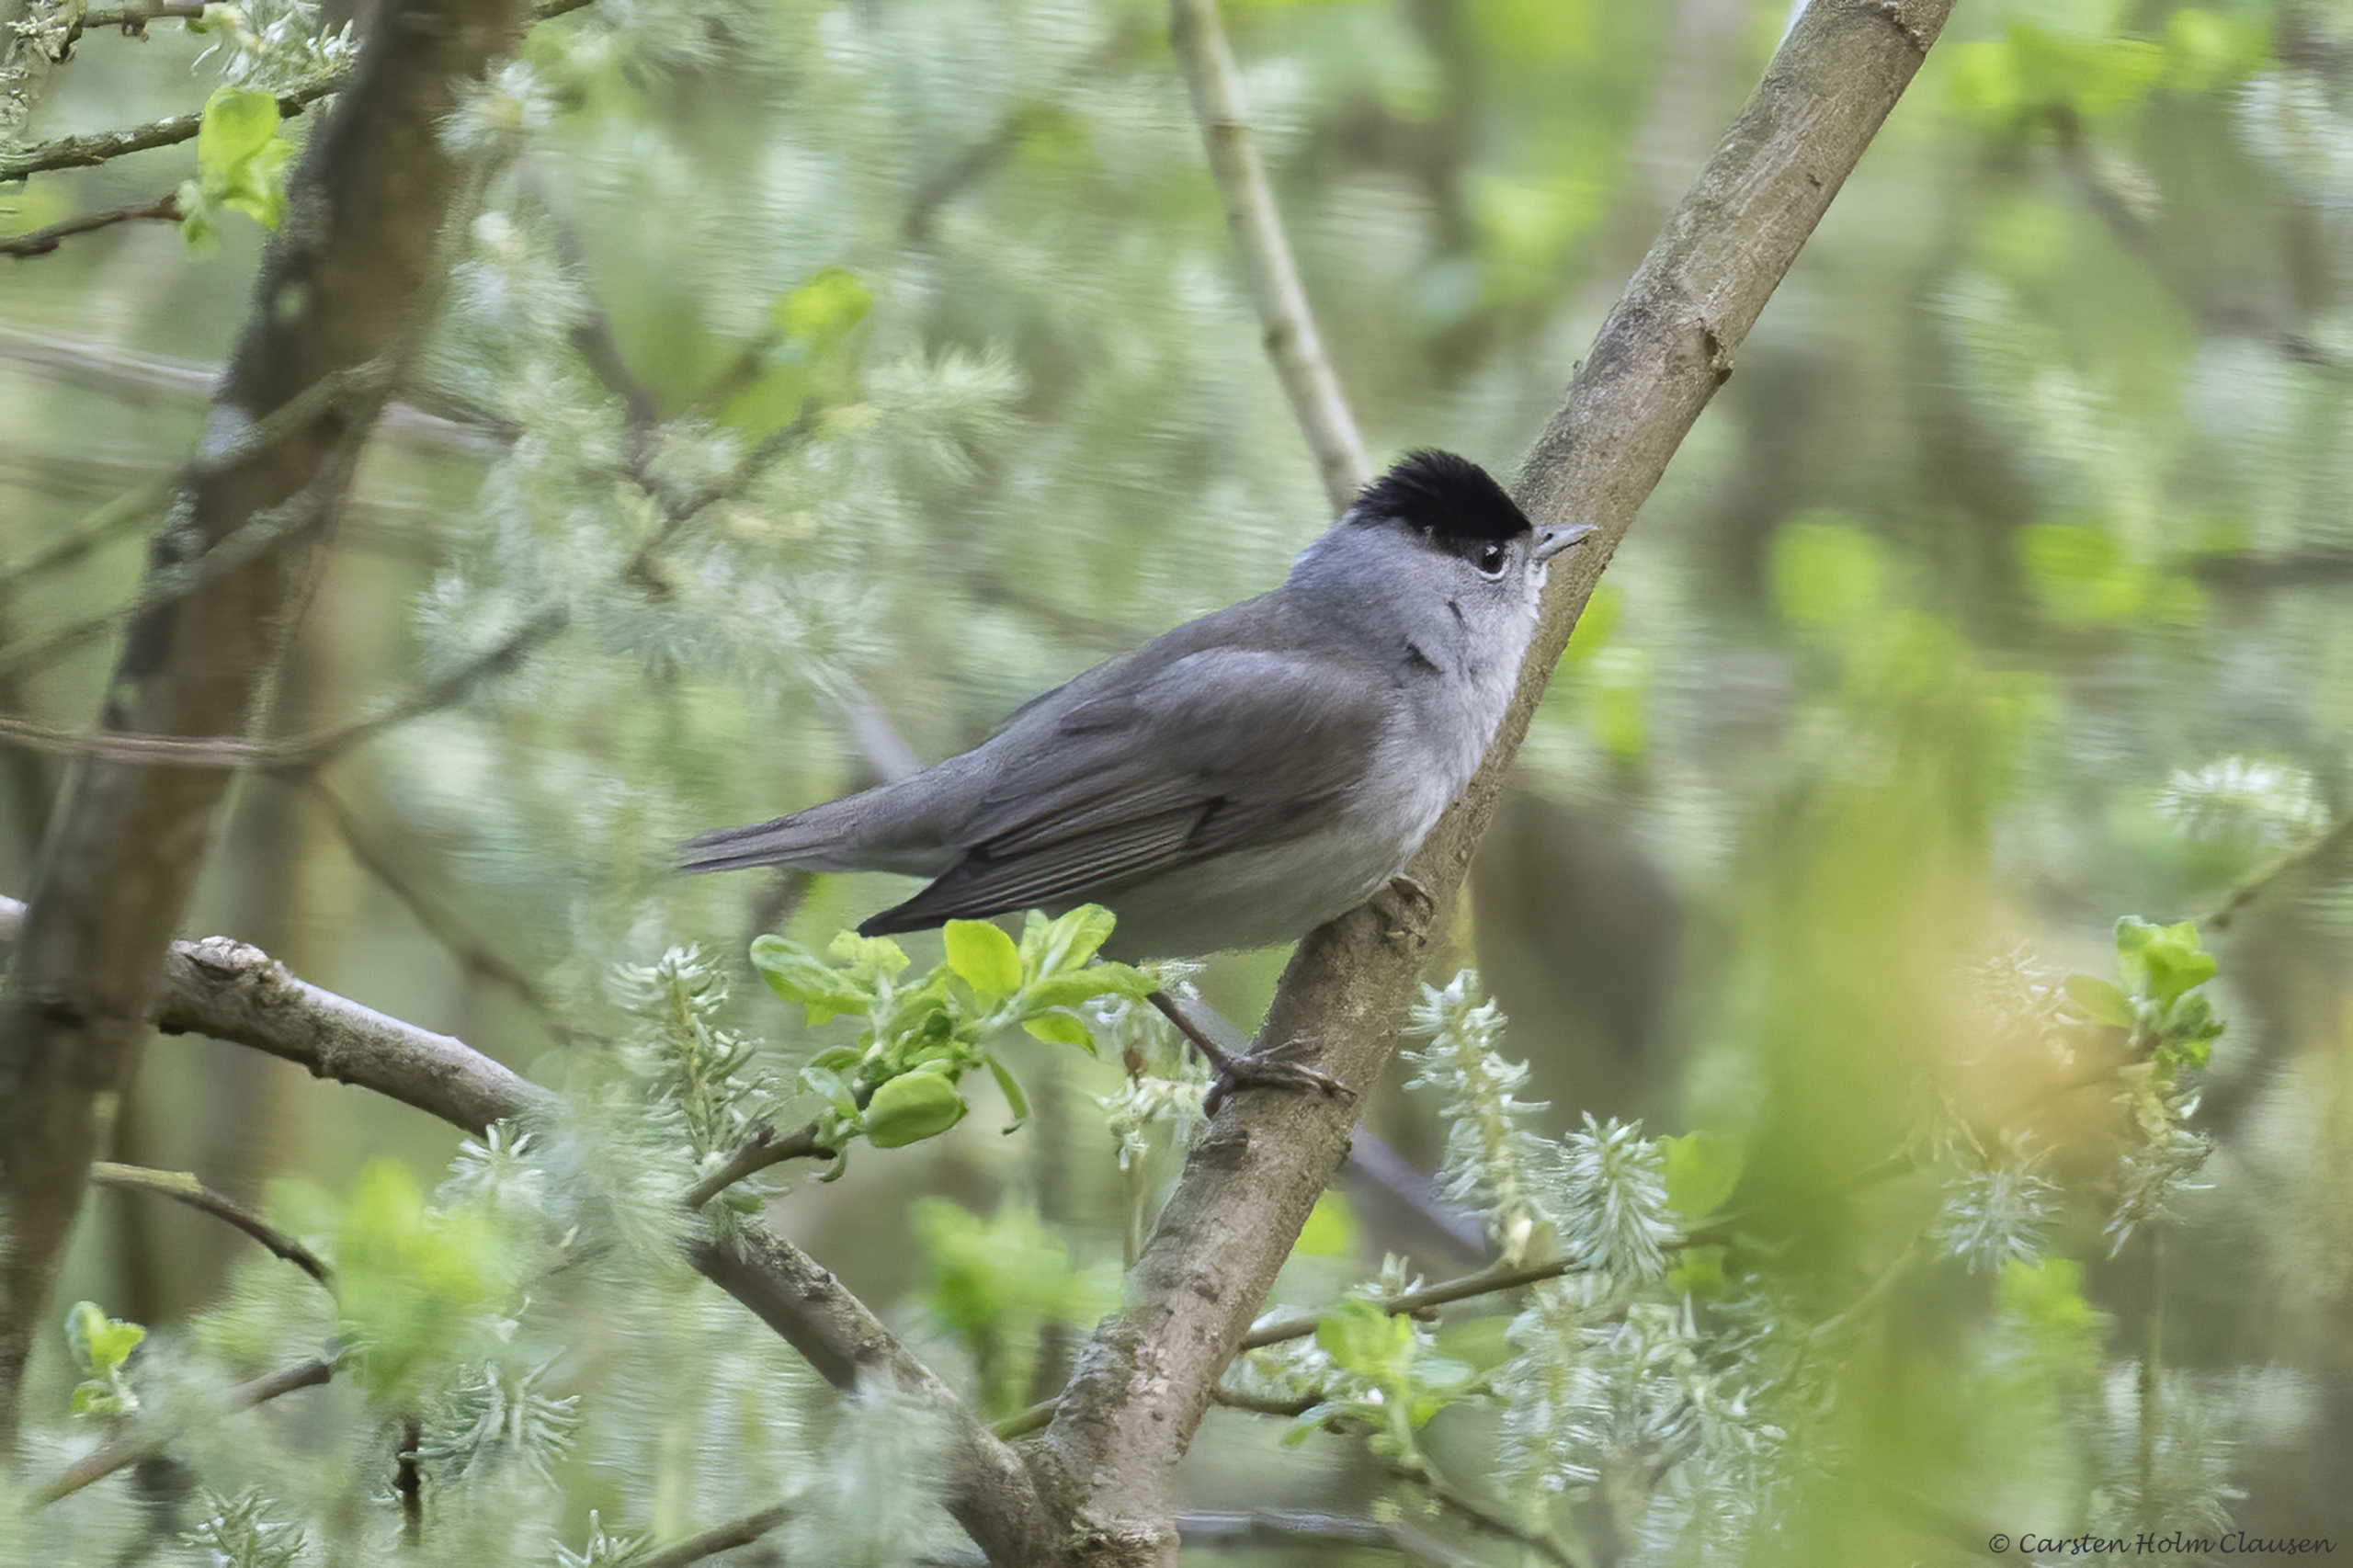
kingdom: Animalia
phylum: Chordata
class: Aves
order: Passeriformes
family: Sylviidae
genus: Sylvia
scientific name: Sylvia atricapilla
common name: Munk
